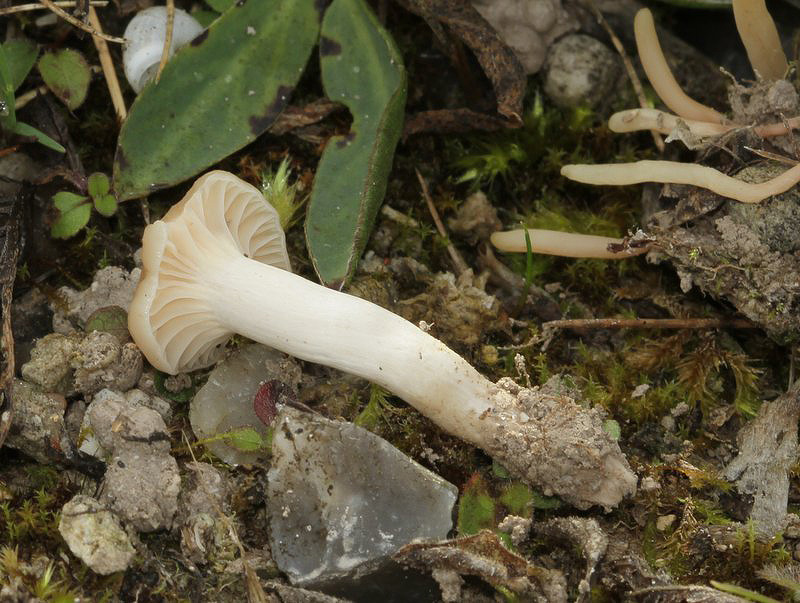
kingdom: Fungi
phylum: Basidiomycota
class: Agaricomycetes
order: Agaricales
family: Hygrophoraceae
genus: Cuphophyllus
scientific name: Cuphophyllus virgineus
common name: snehvid vokshat
